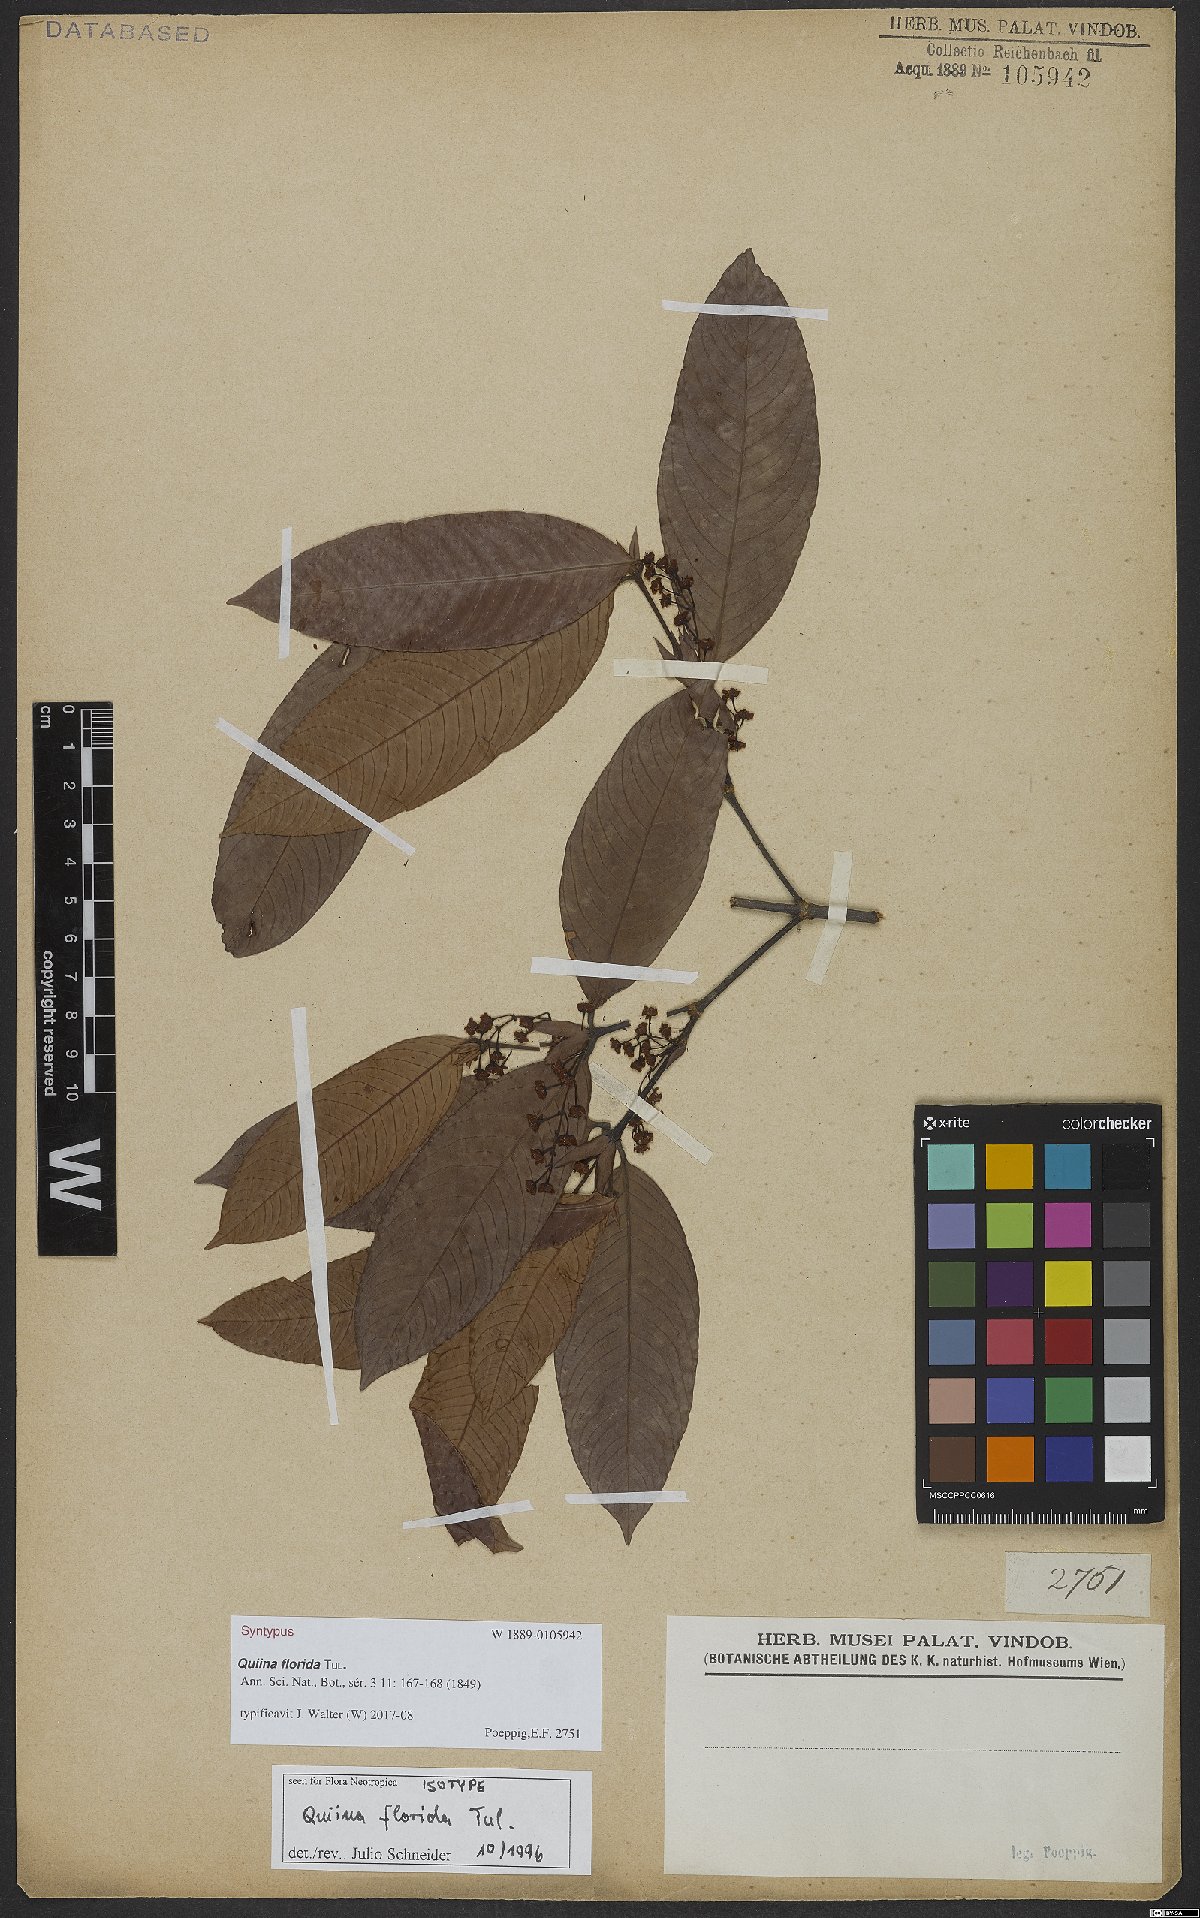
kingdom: Plantae
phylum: Tracheophyta
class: Magnoliopsida
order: Malpighiales
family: Quiinaceae
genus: Quiina
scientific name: Quiina florida
